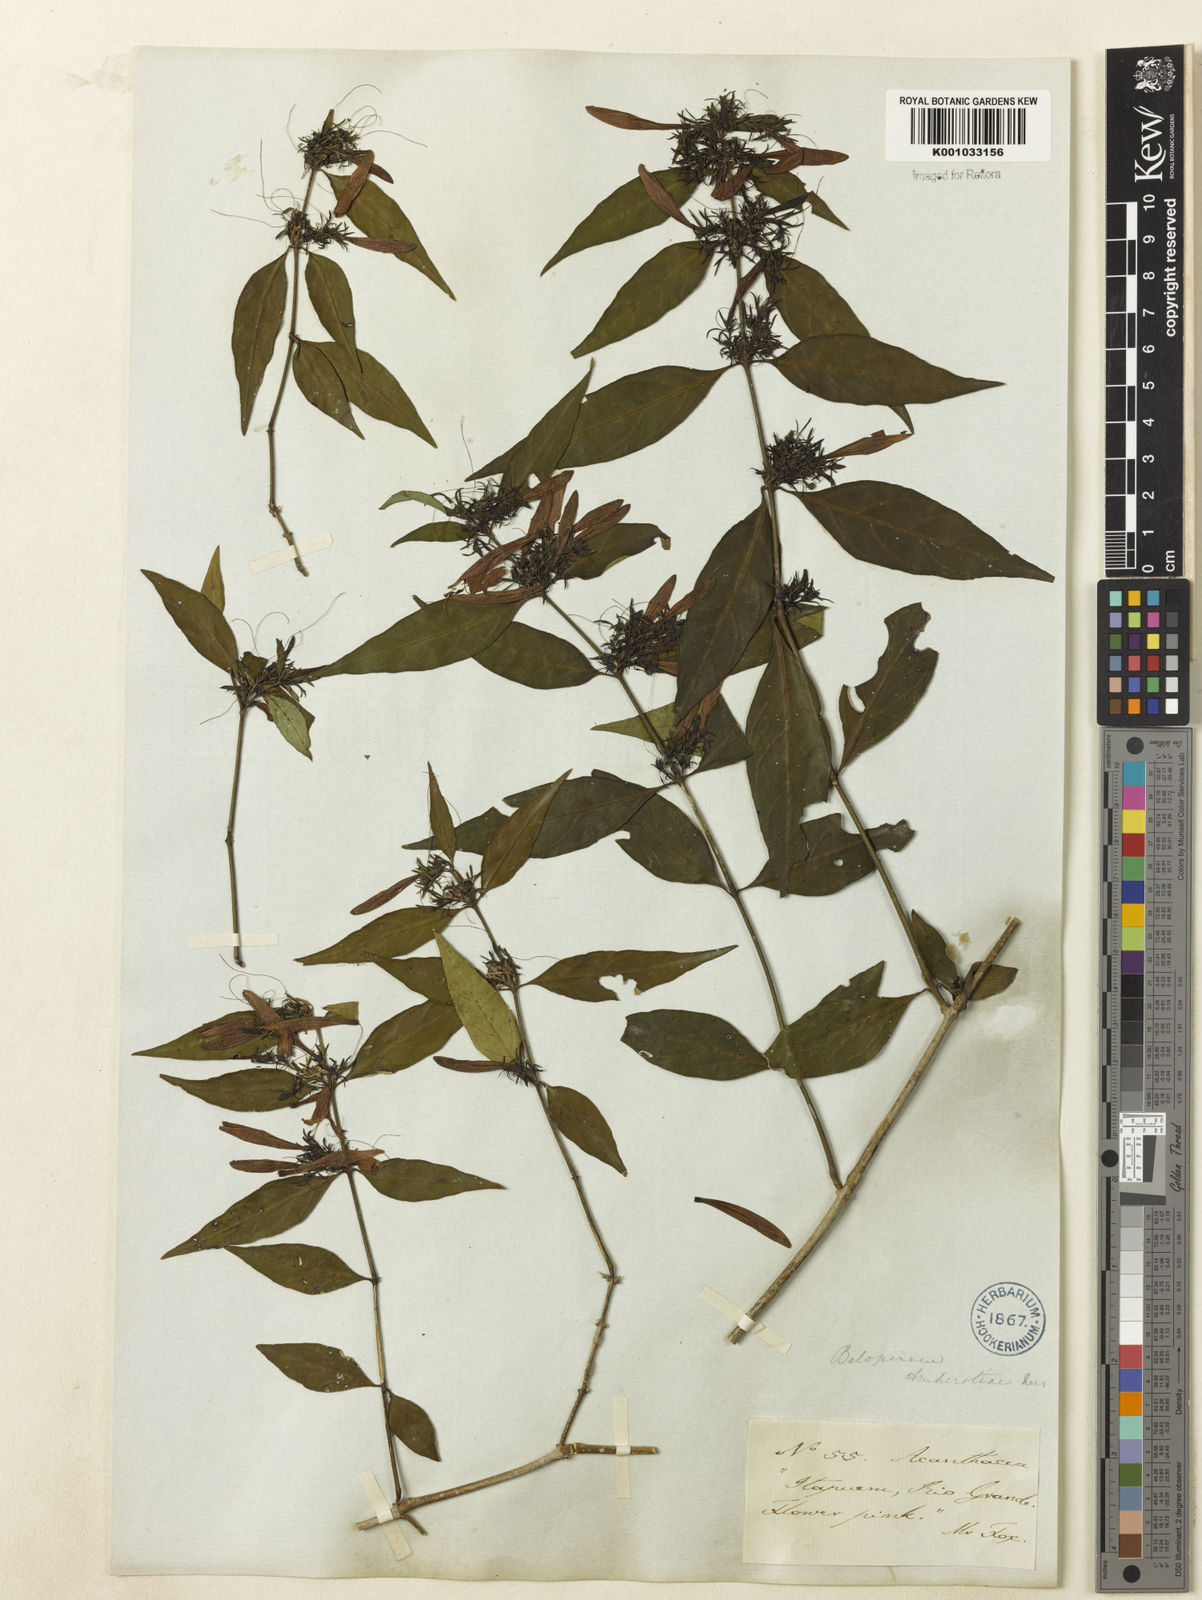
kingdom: Plantae
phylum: Tracheophyta
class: Magnoliopsida
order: Lamiales
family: Acanthaceae
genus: Justicia
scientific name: Justicia brasiliana
